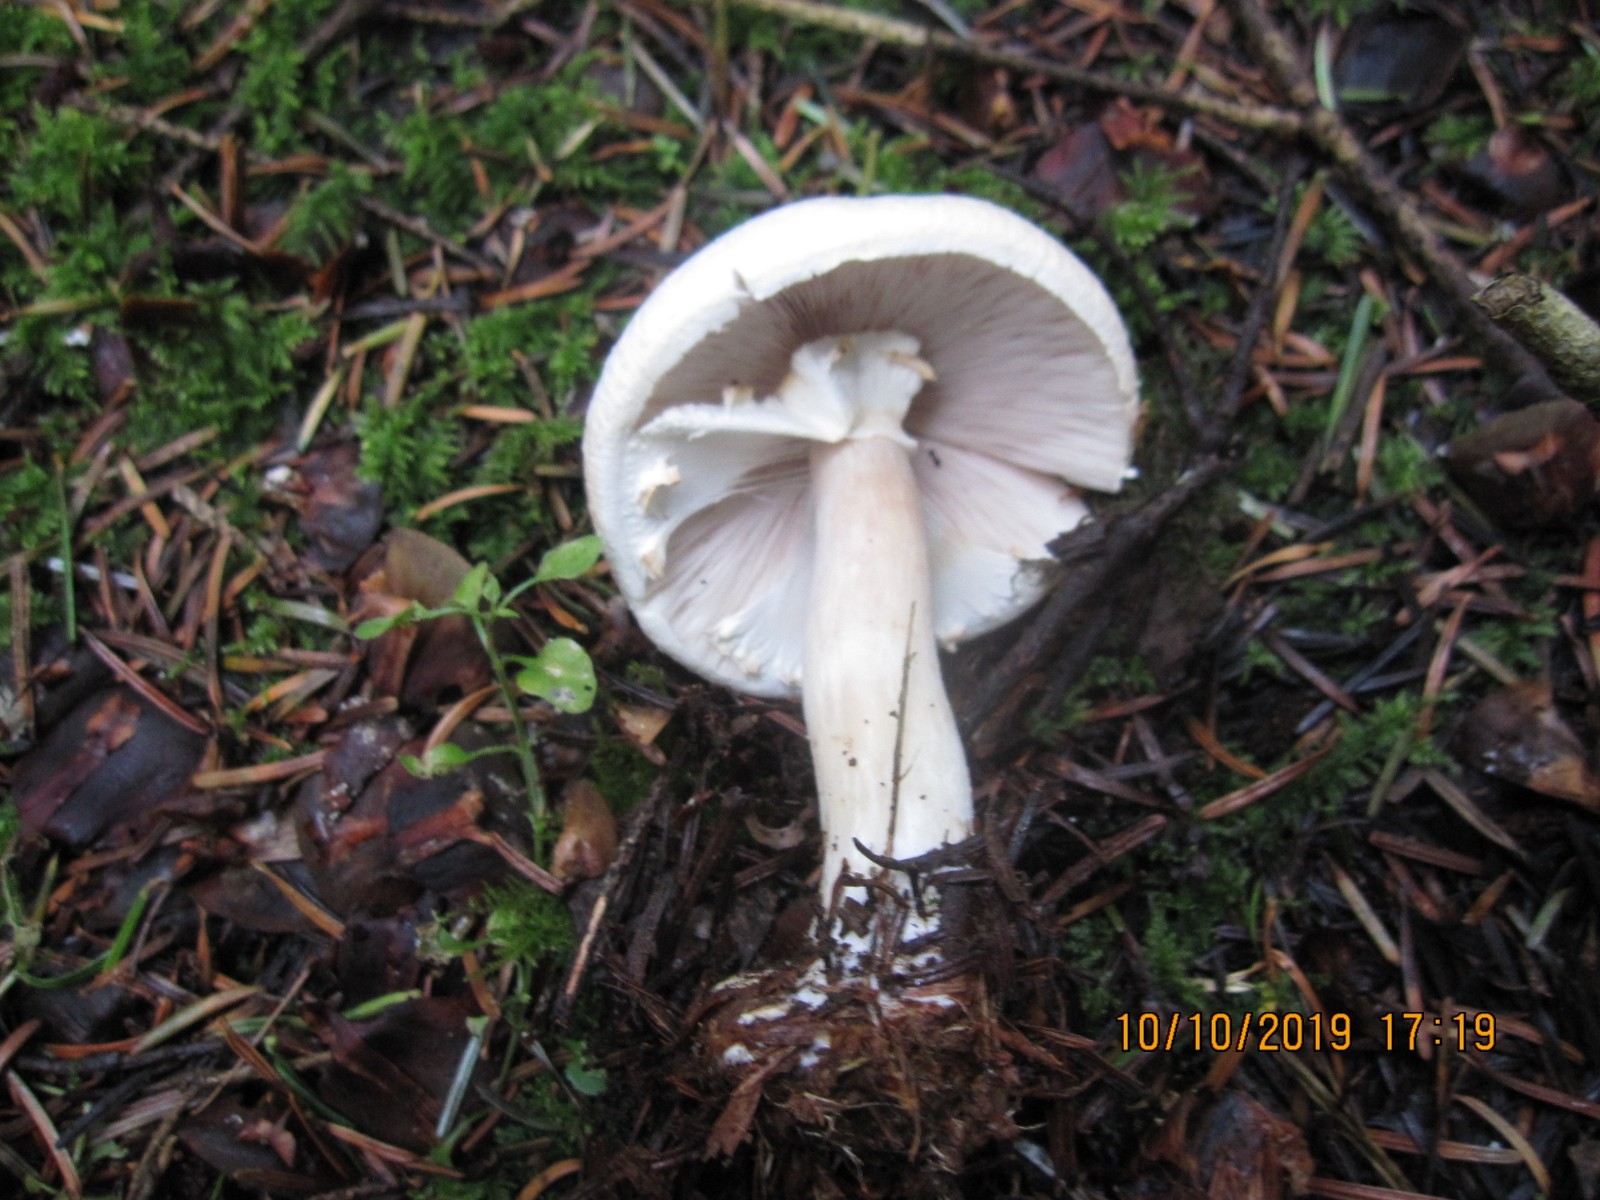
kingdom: Fungi
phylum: Basidiomycota
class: Agaricomycetes
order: Agaricales
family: Agaricaceae
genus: Agaricus
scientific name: Agaricus sylvicola
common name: skiveknoldet champignon
